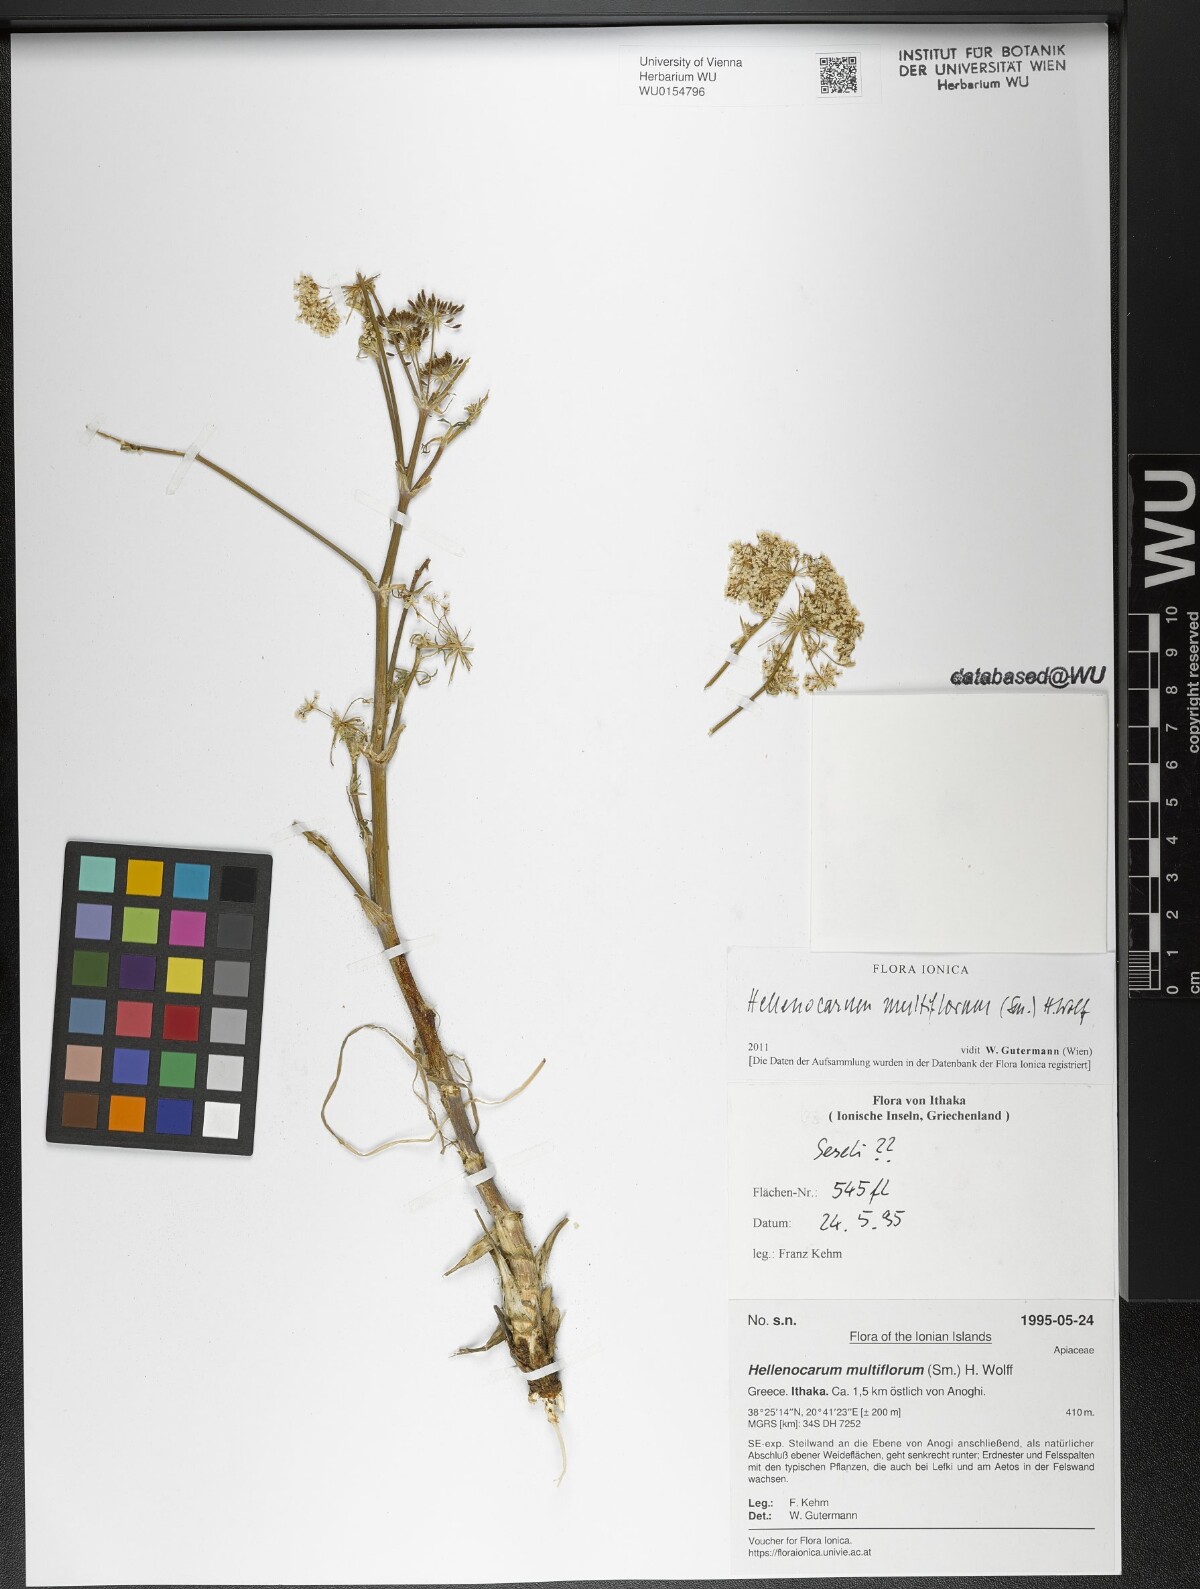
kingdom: Plantae
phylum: Tracheophyta
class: Magnoliopsida
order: Apiales
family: Apiaceae
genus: Hellenocarum
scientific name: Hellenocarum multiflorum
